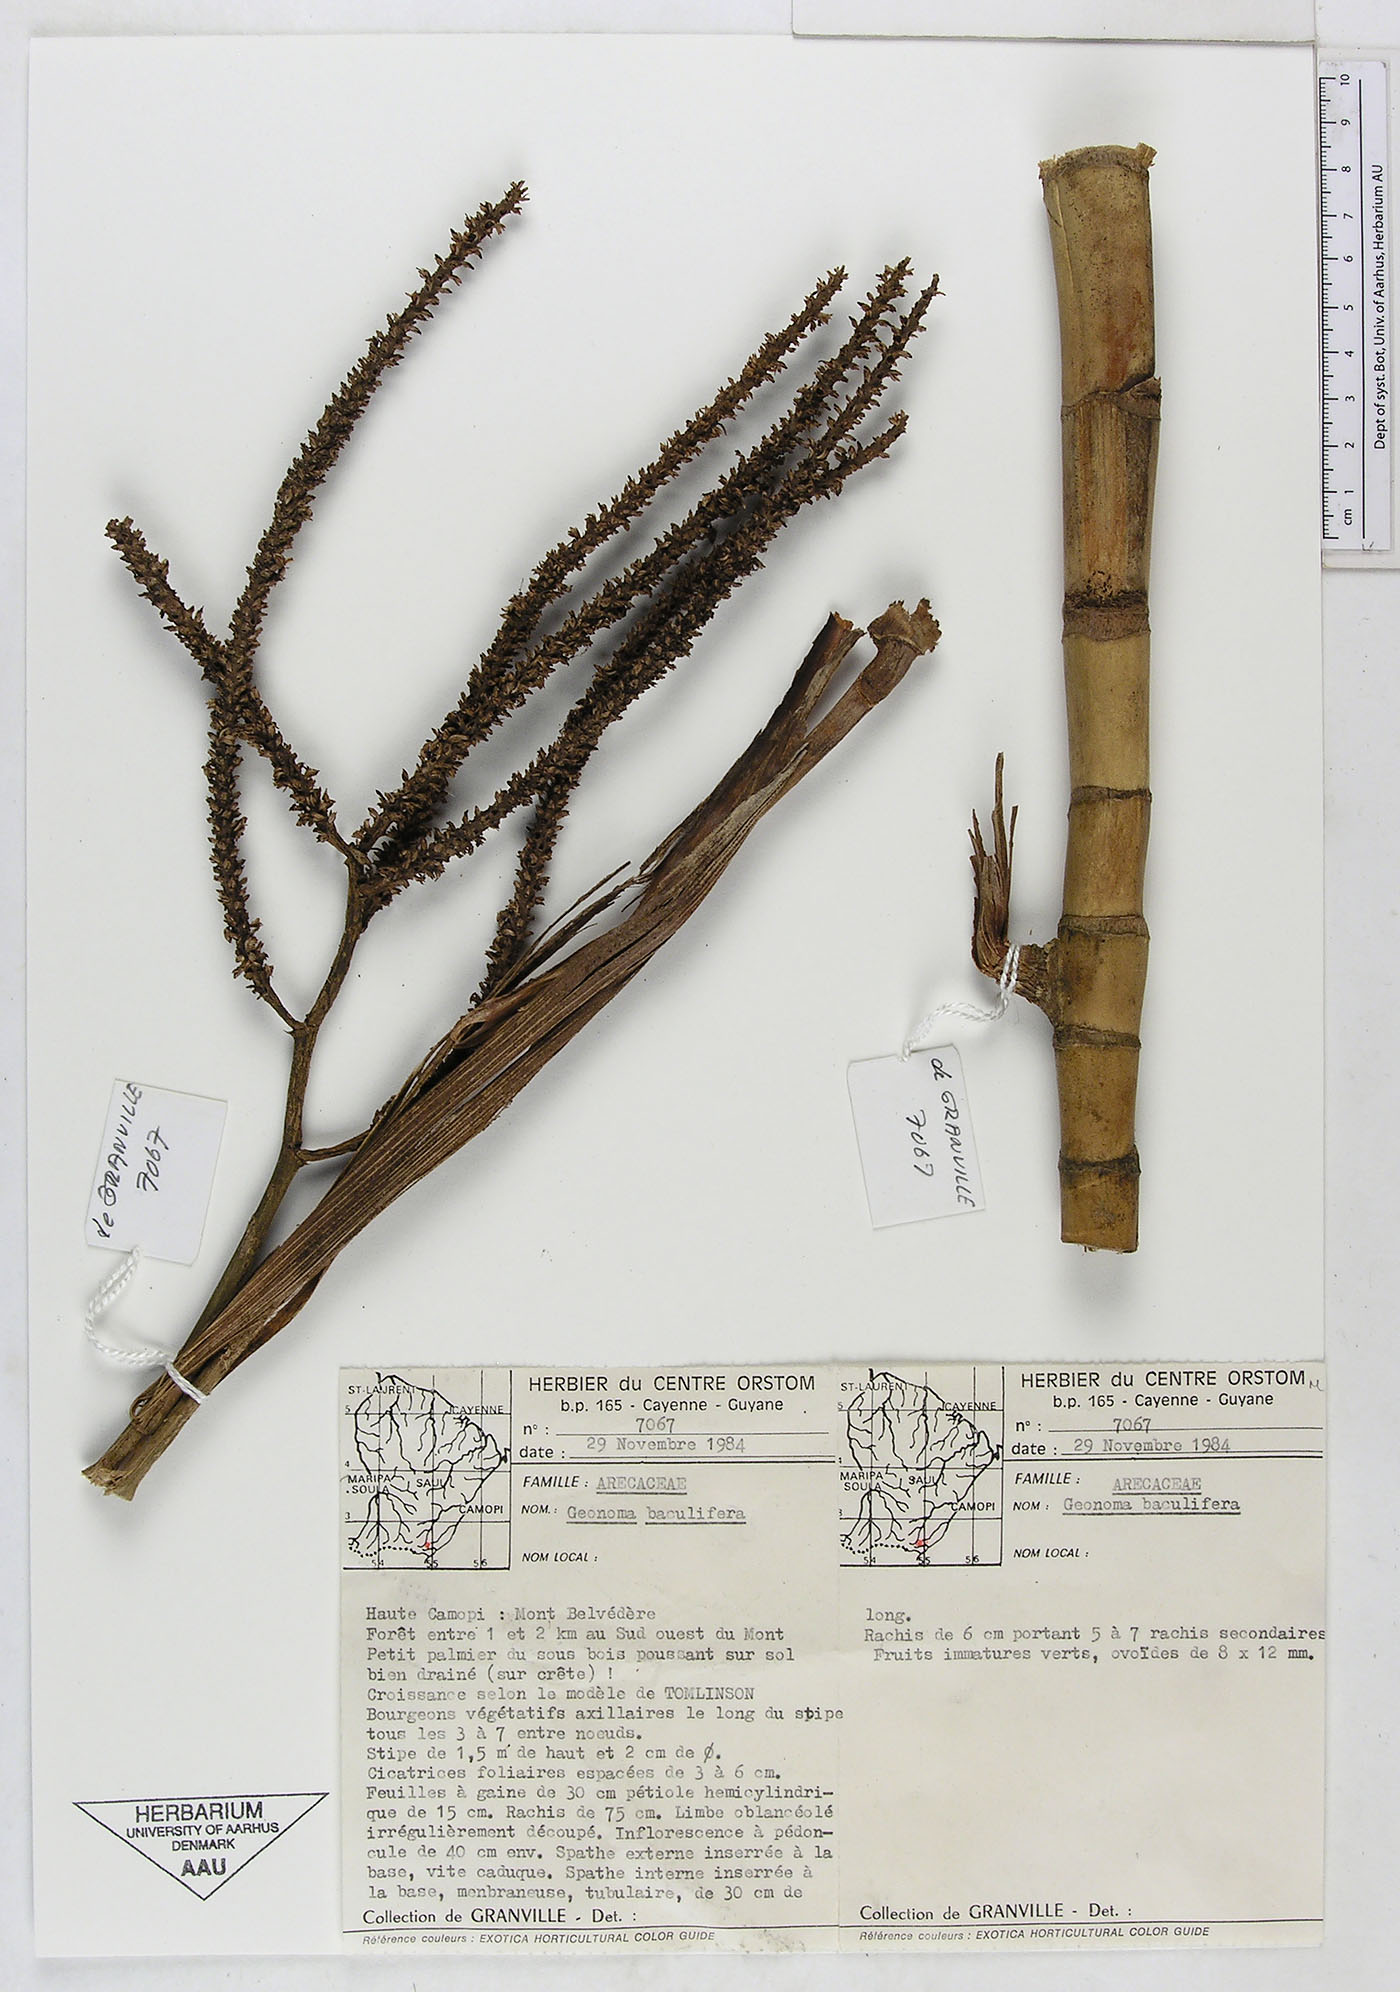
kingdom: Plantae
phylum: Tracheophyta
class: Liliopsida
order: Arecales
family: Arecaceae
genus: Geonoma
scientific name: Geonoma baculifera
